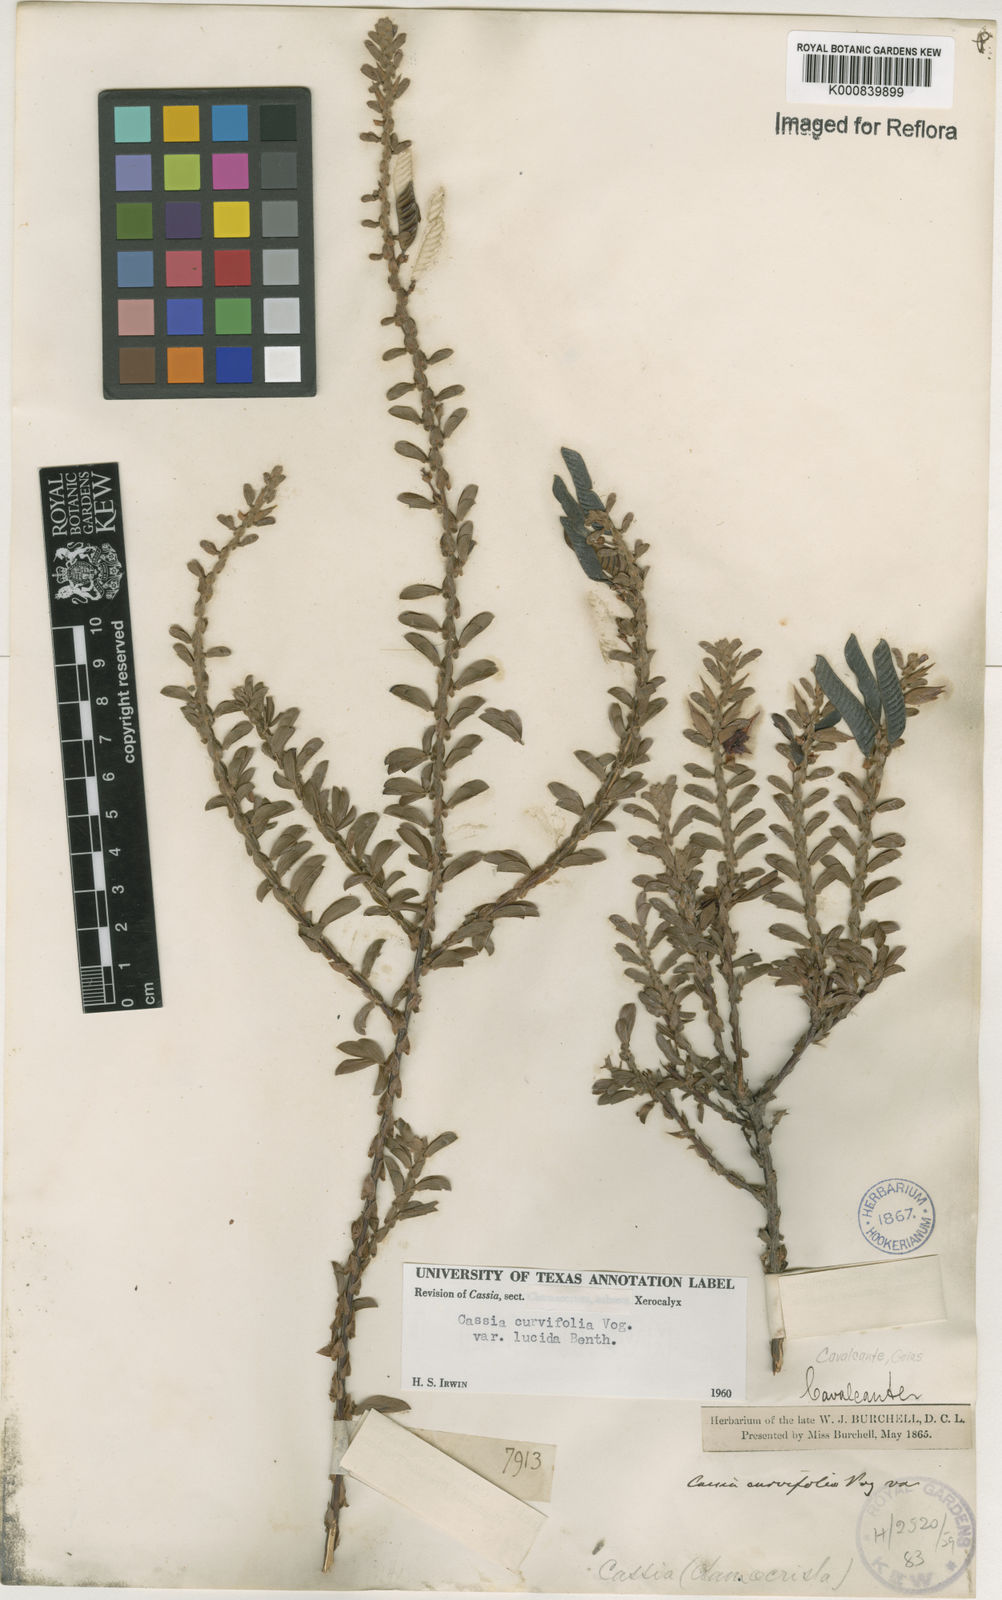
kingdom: Plantae
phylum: Tracheophyta
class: Magnoliopsida
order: Fabales
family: Fabaceae
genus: Chamaecrista
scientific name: Chamaecrista ramosa
